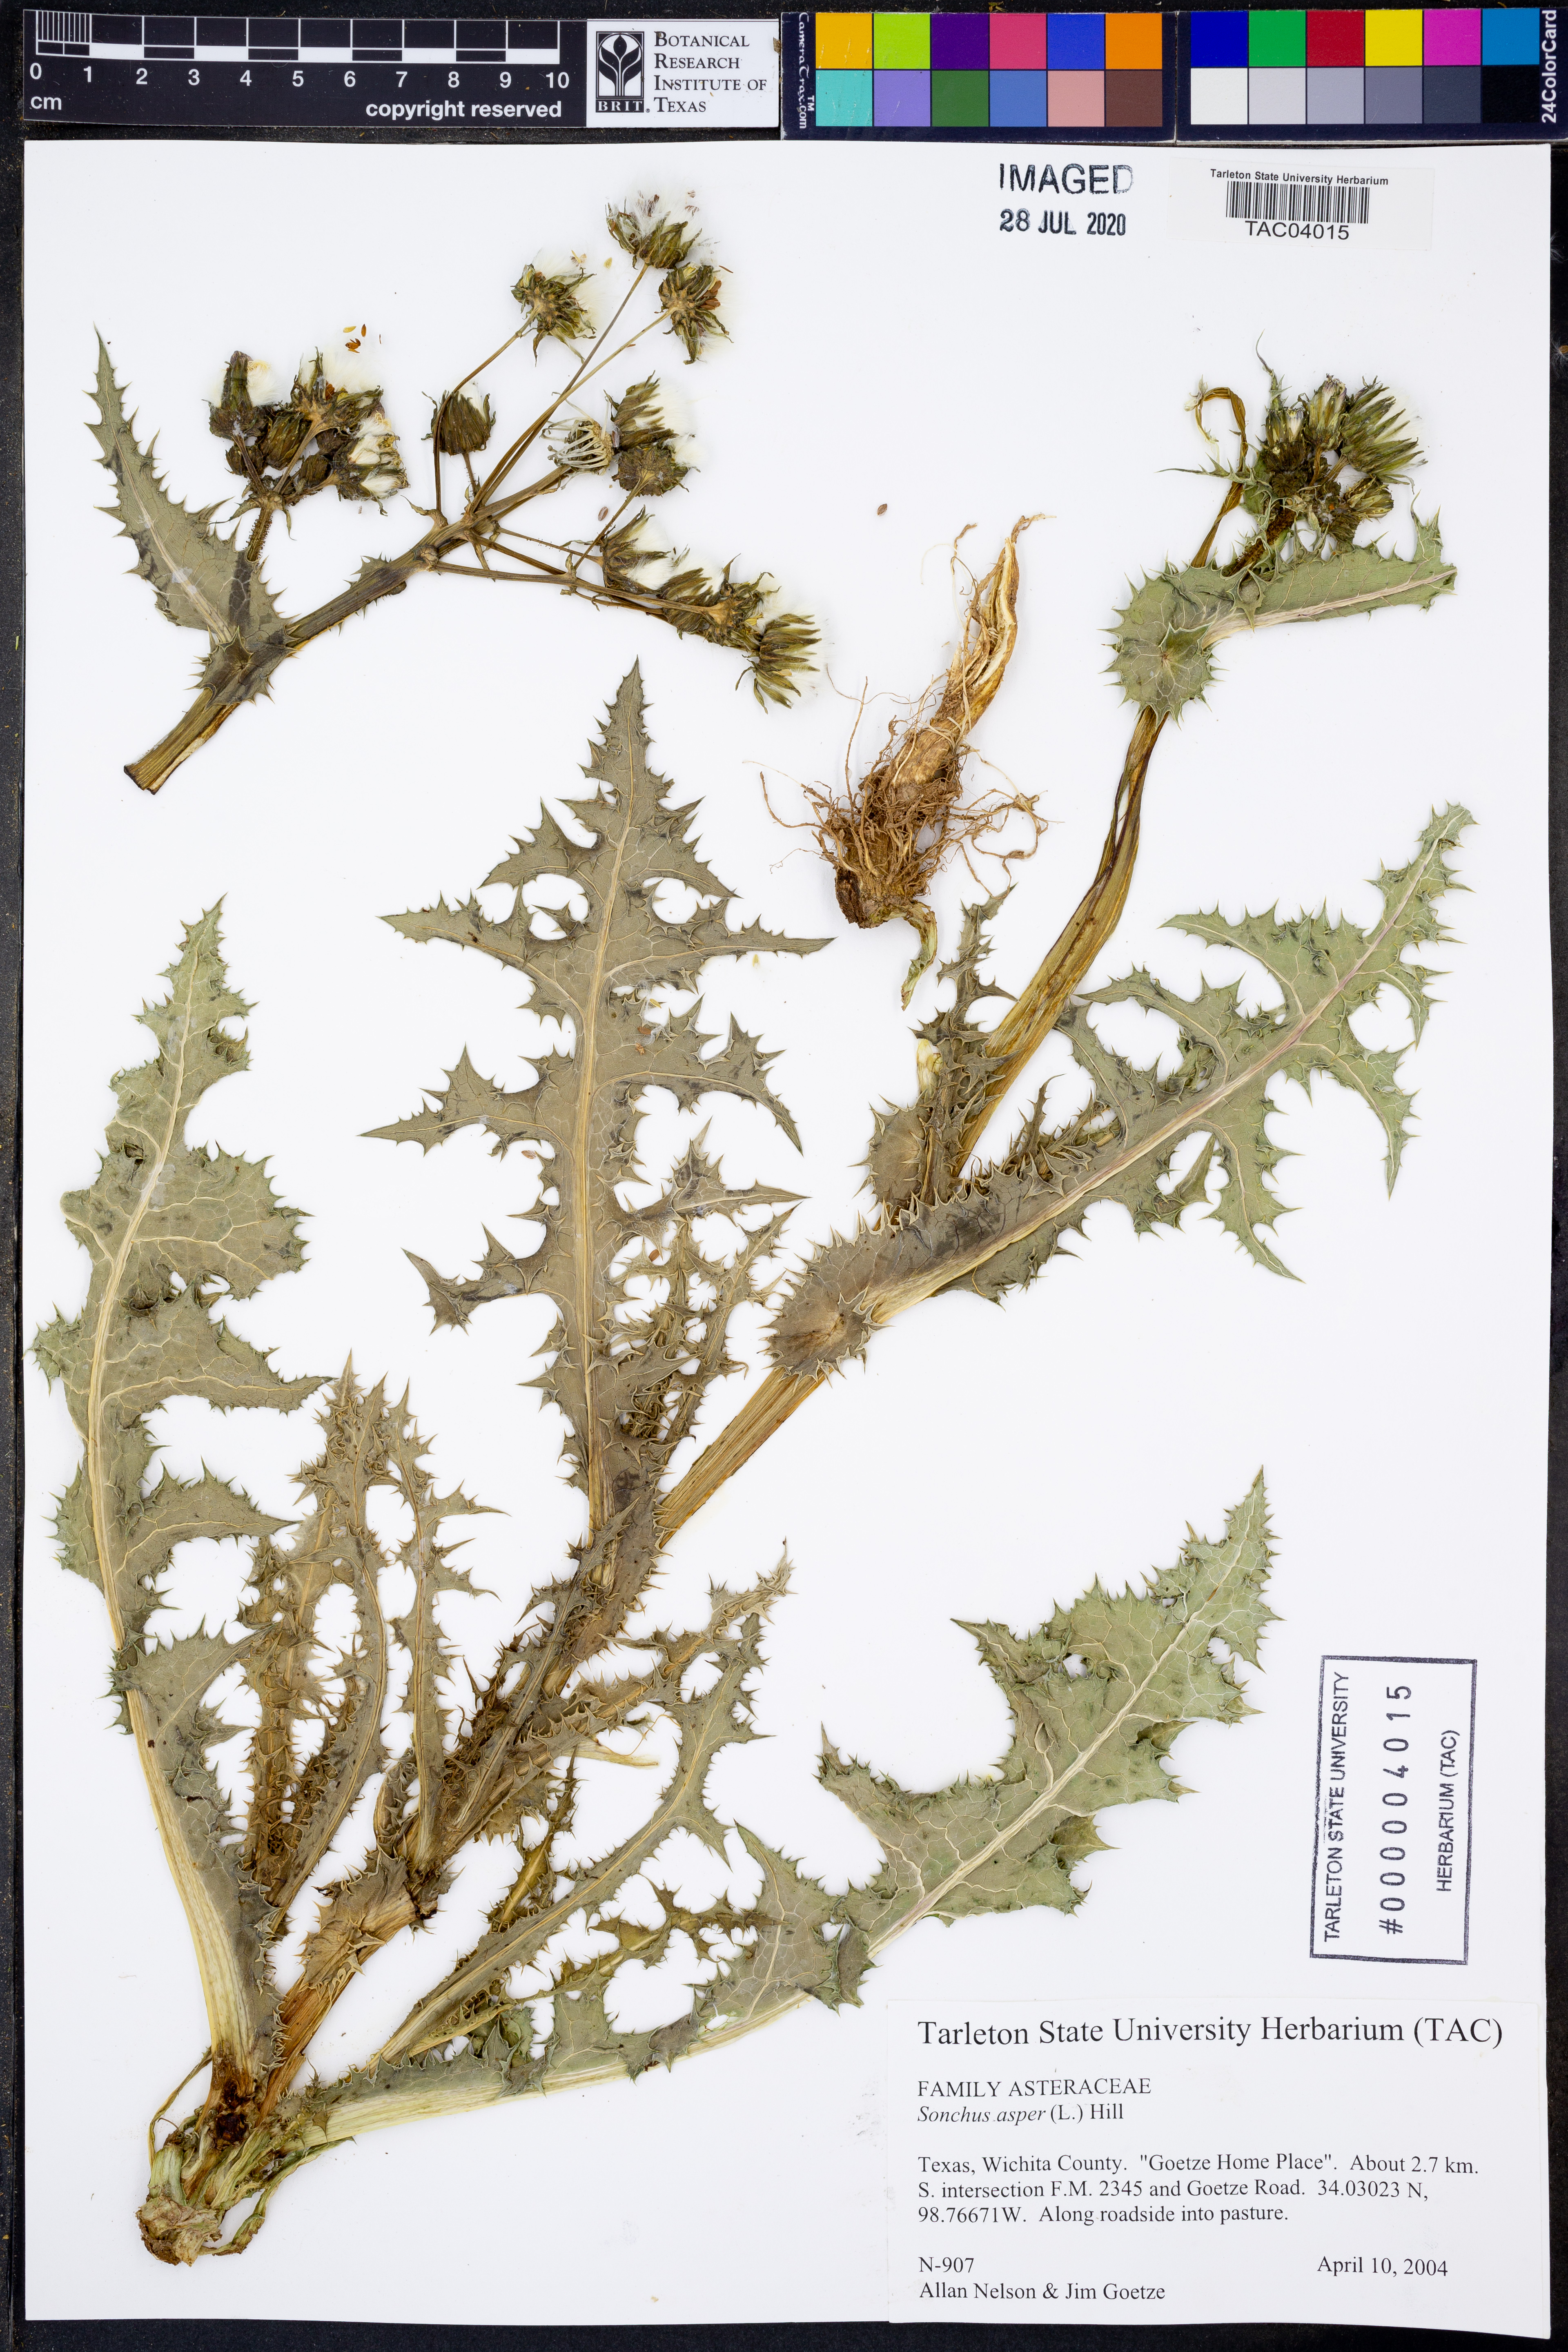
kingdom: Plantae
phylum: Tracheophyta
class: Magnoliopsida
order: Asterales
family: Asteraceae
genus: Sonchus
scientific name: Sonchus asper
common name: Prickly sow-thistle
